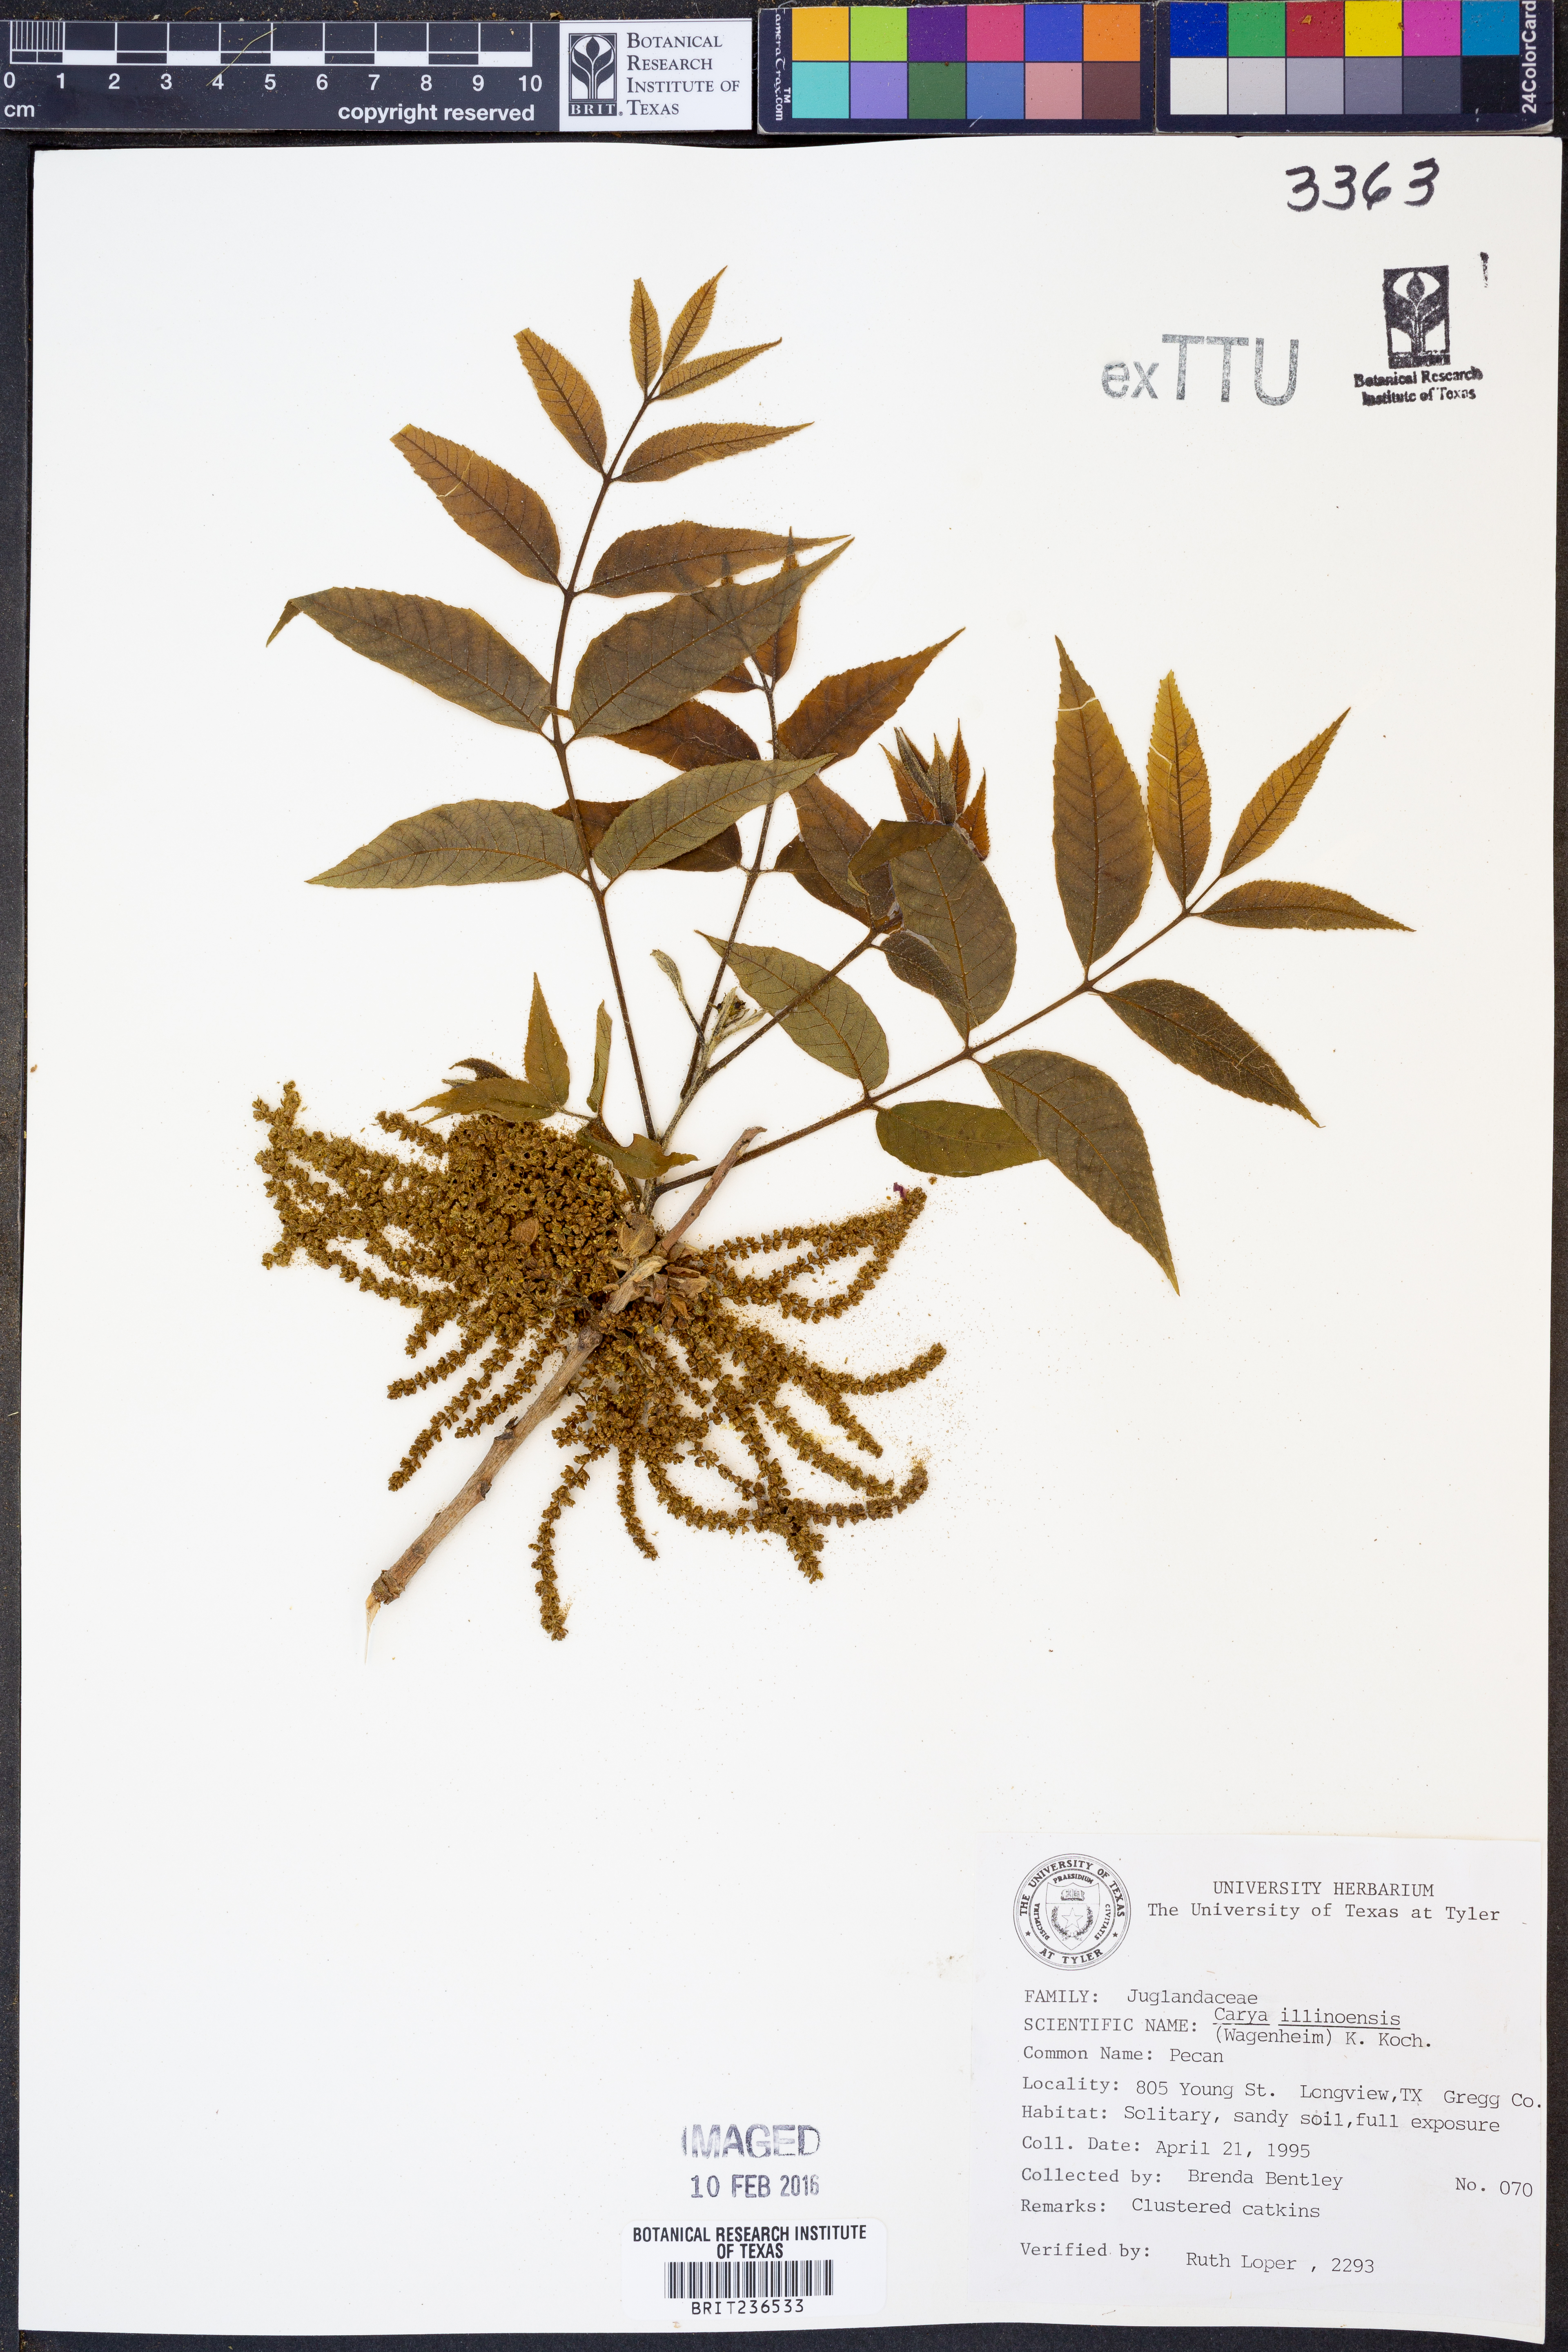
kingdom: Plantae
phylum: Tracheophyta
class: Magnoliopsida
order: Fagales
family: Juglandaceae
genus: Carya
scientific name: Carya
